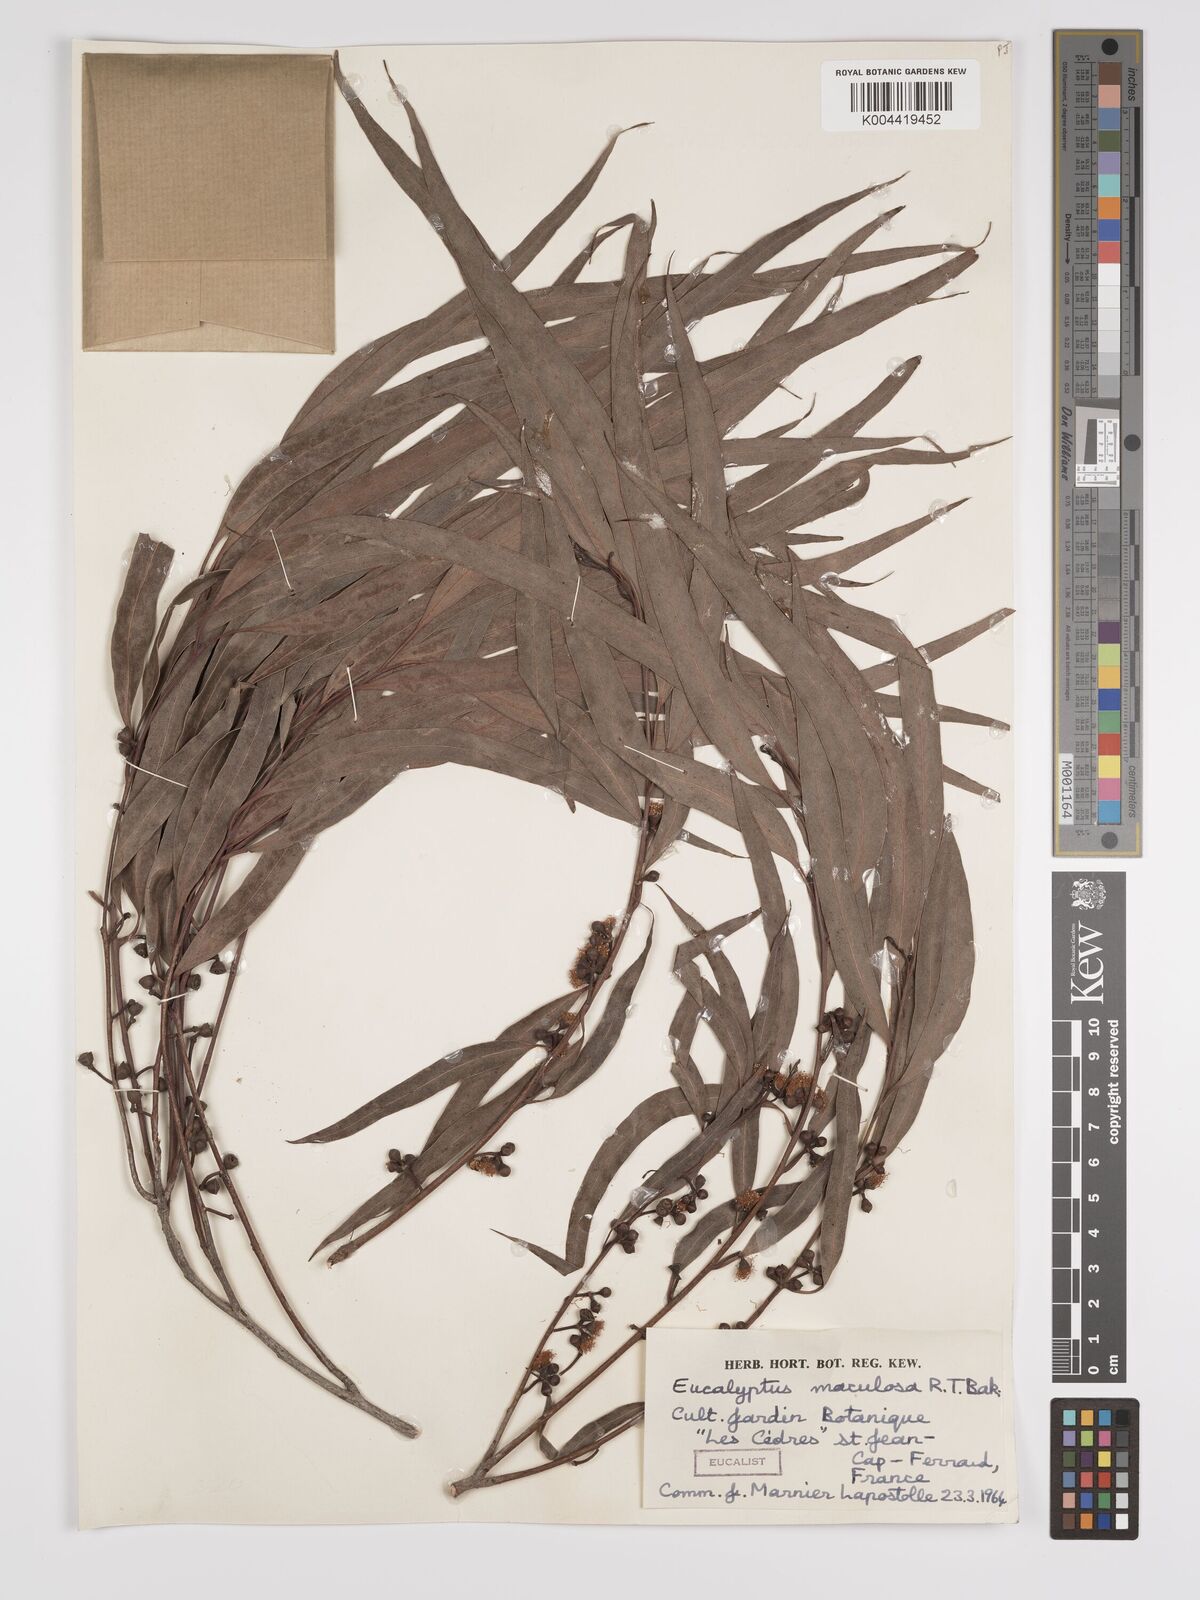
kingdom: Plantae
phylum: Tracheophyta
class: Magnoliopsida
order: Myrtales
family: Myrtaceae
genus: Eucalyptus
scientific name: Eucalyptus mannifera
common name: Manna gum
